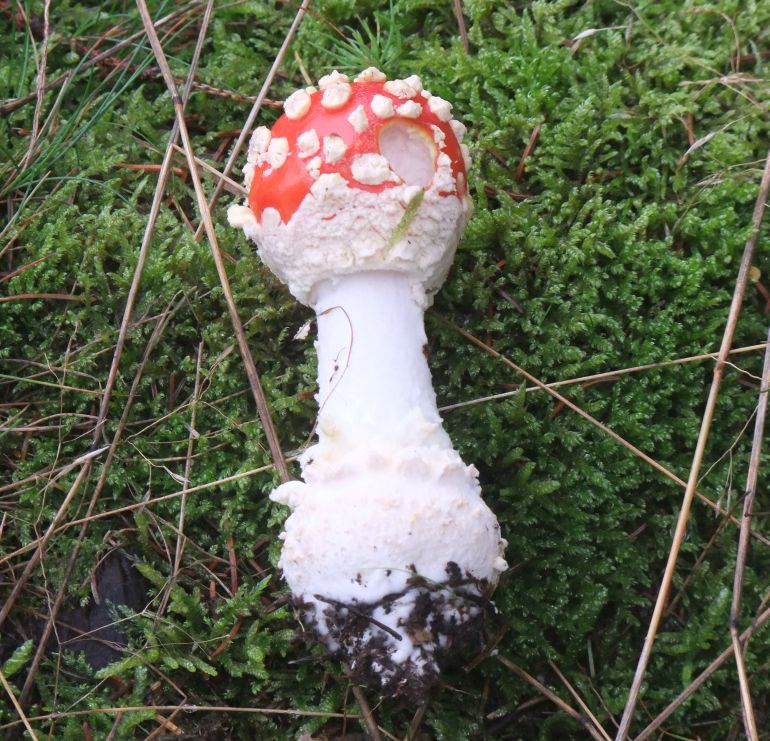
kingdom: Fungi
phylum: Basidiomycota
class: Agaricomycetes
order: Agaricales
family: Amanitaceae
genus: Amanita
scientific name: Amanita muscaria
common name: rød fluesvamp
